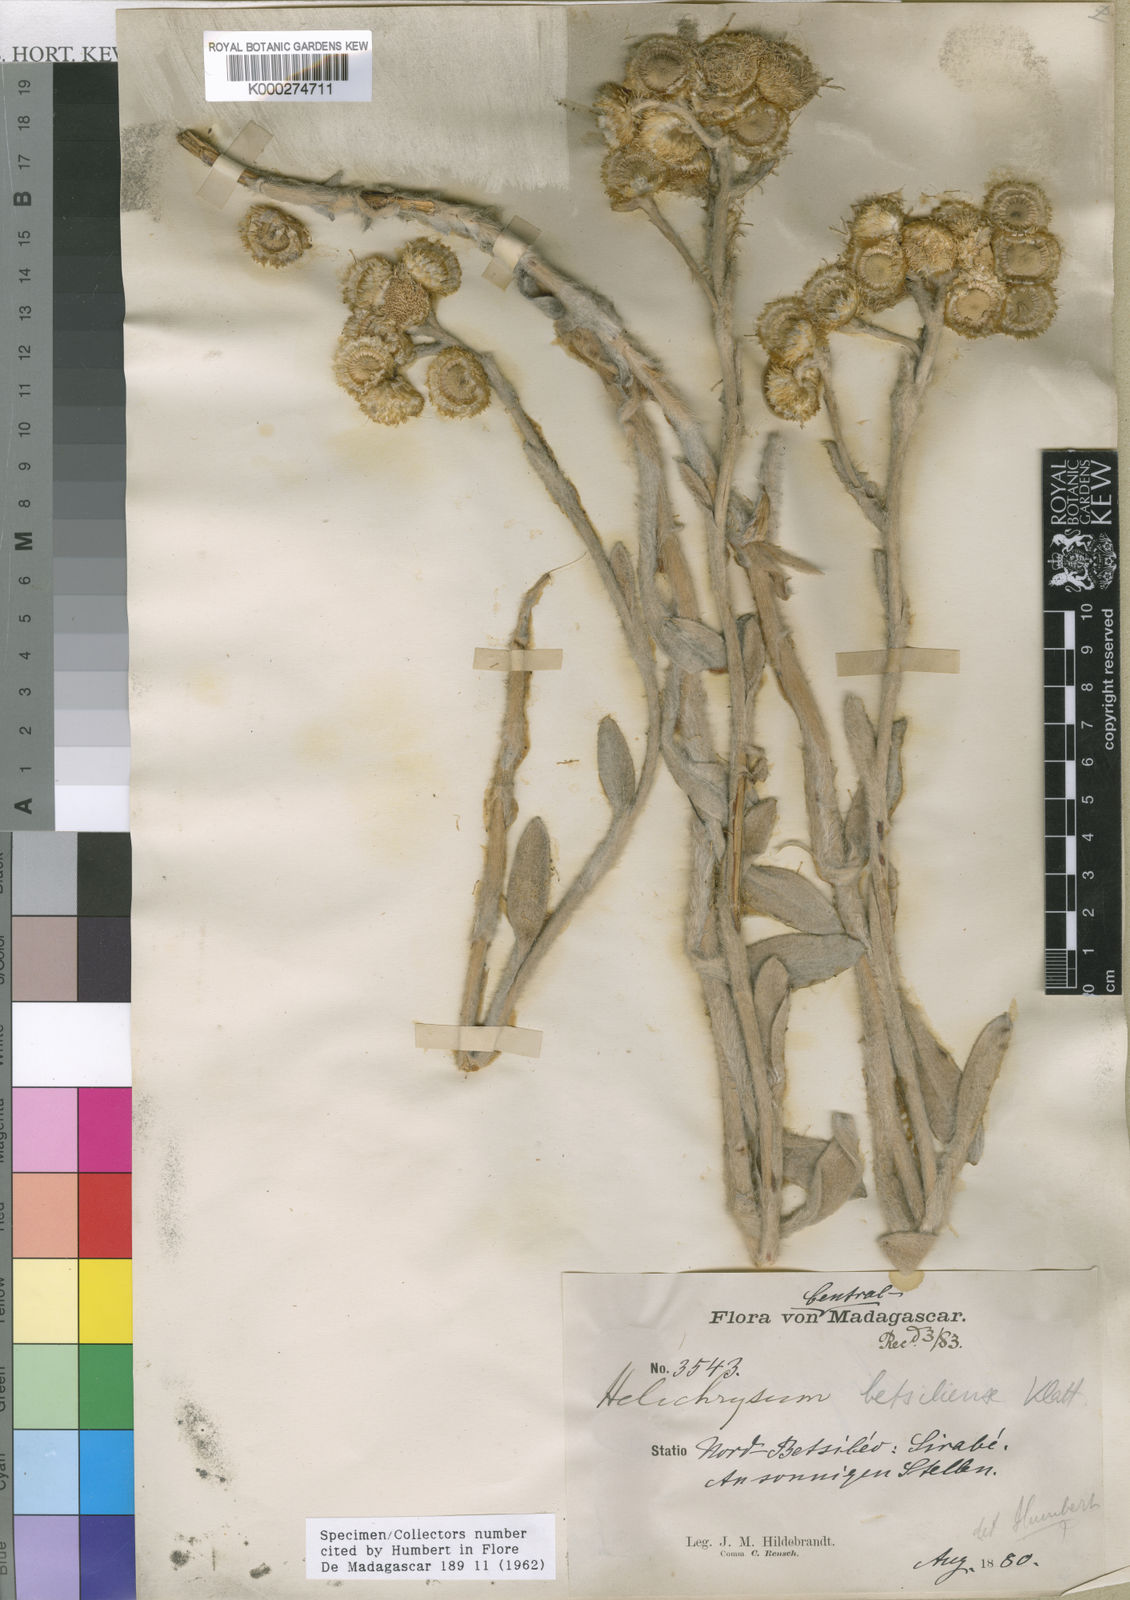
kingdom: Plantae
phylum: Tracheophyta
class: Magnoliopsida
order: Asterales
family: Asteraceae
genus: Helichrysum
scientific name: Helichrysum betsiliense
